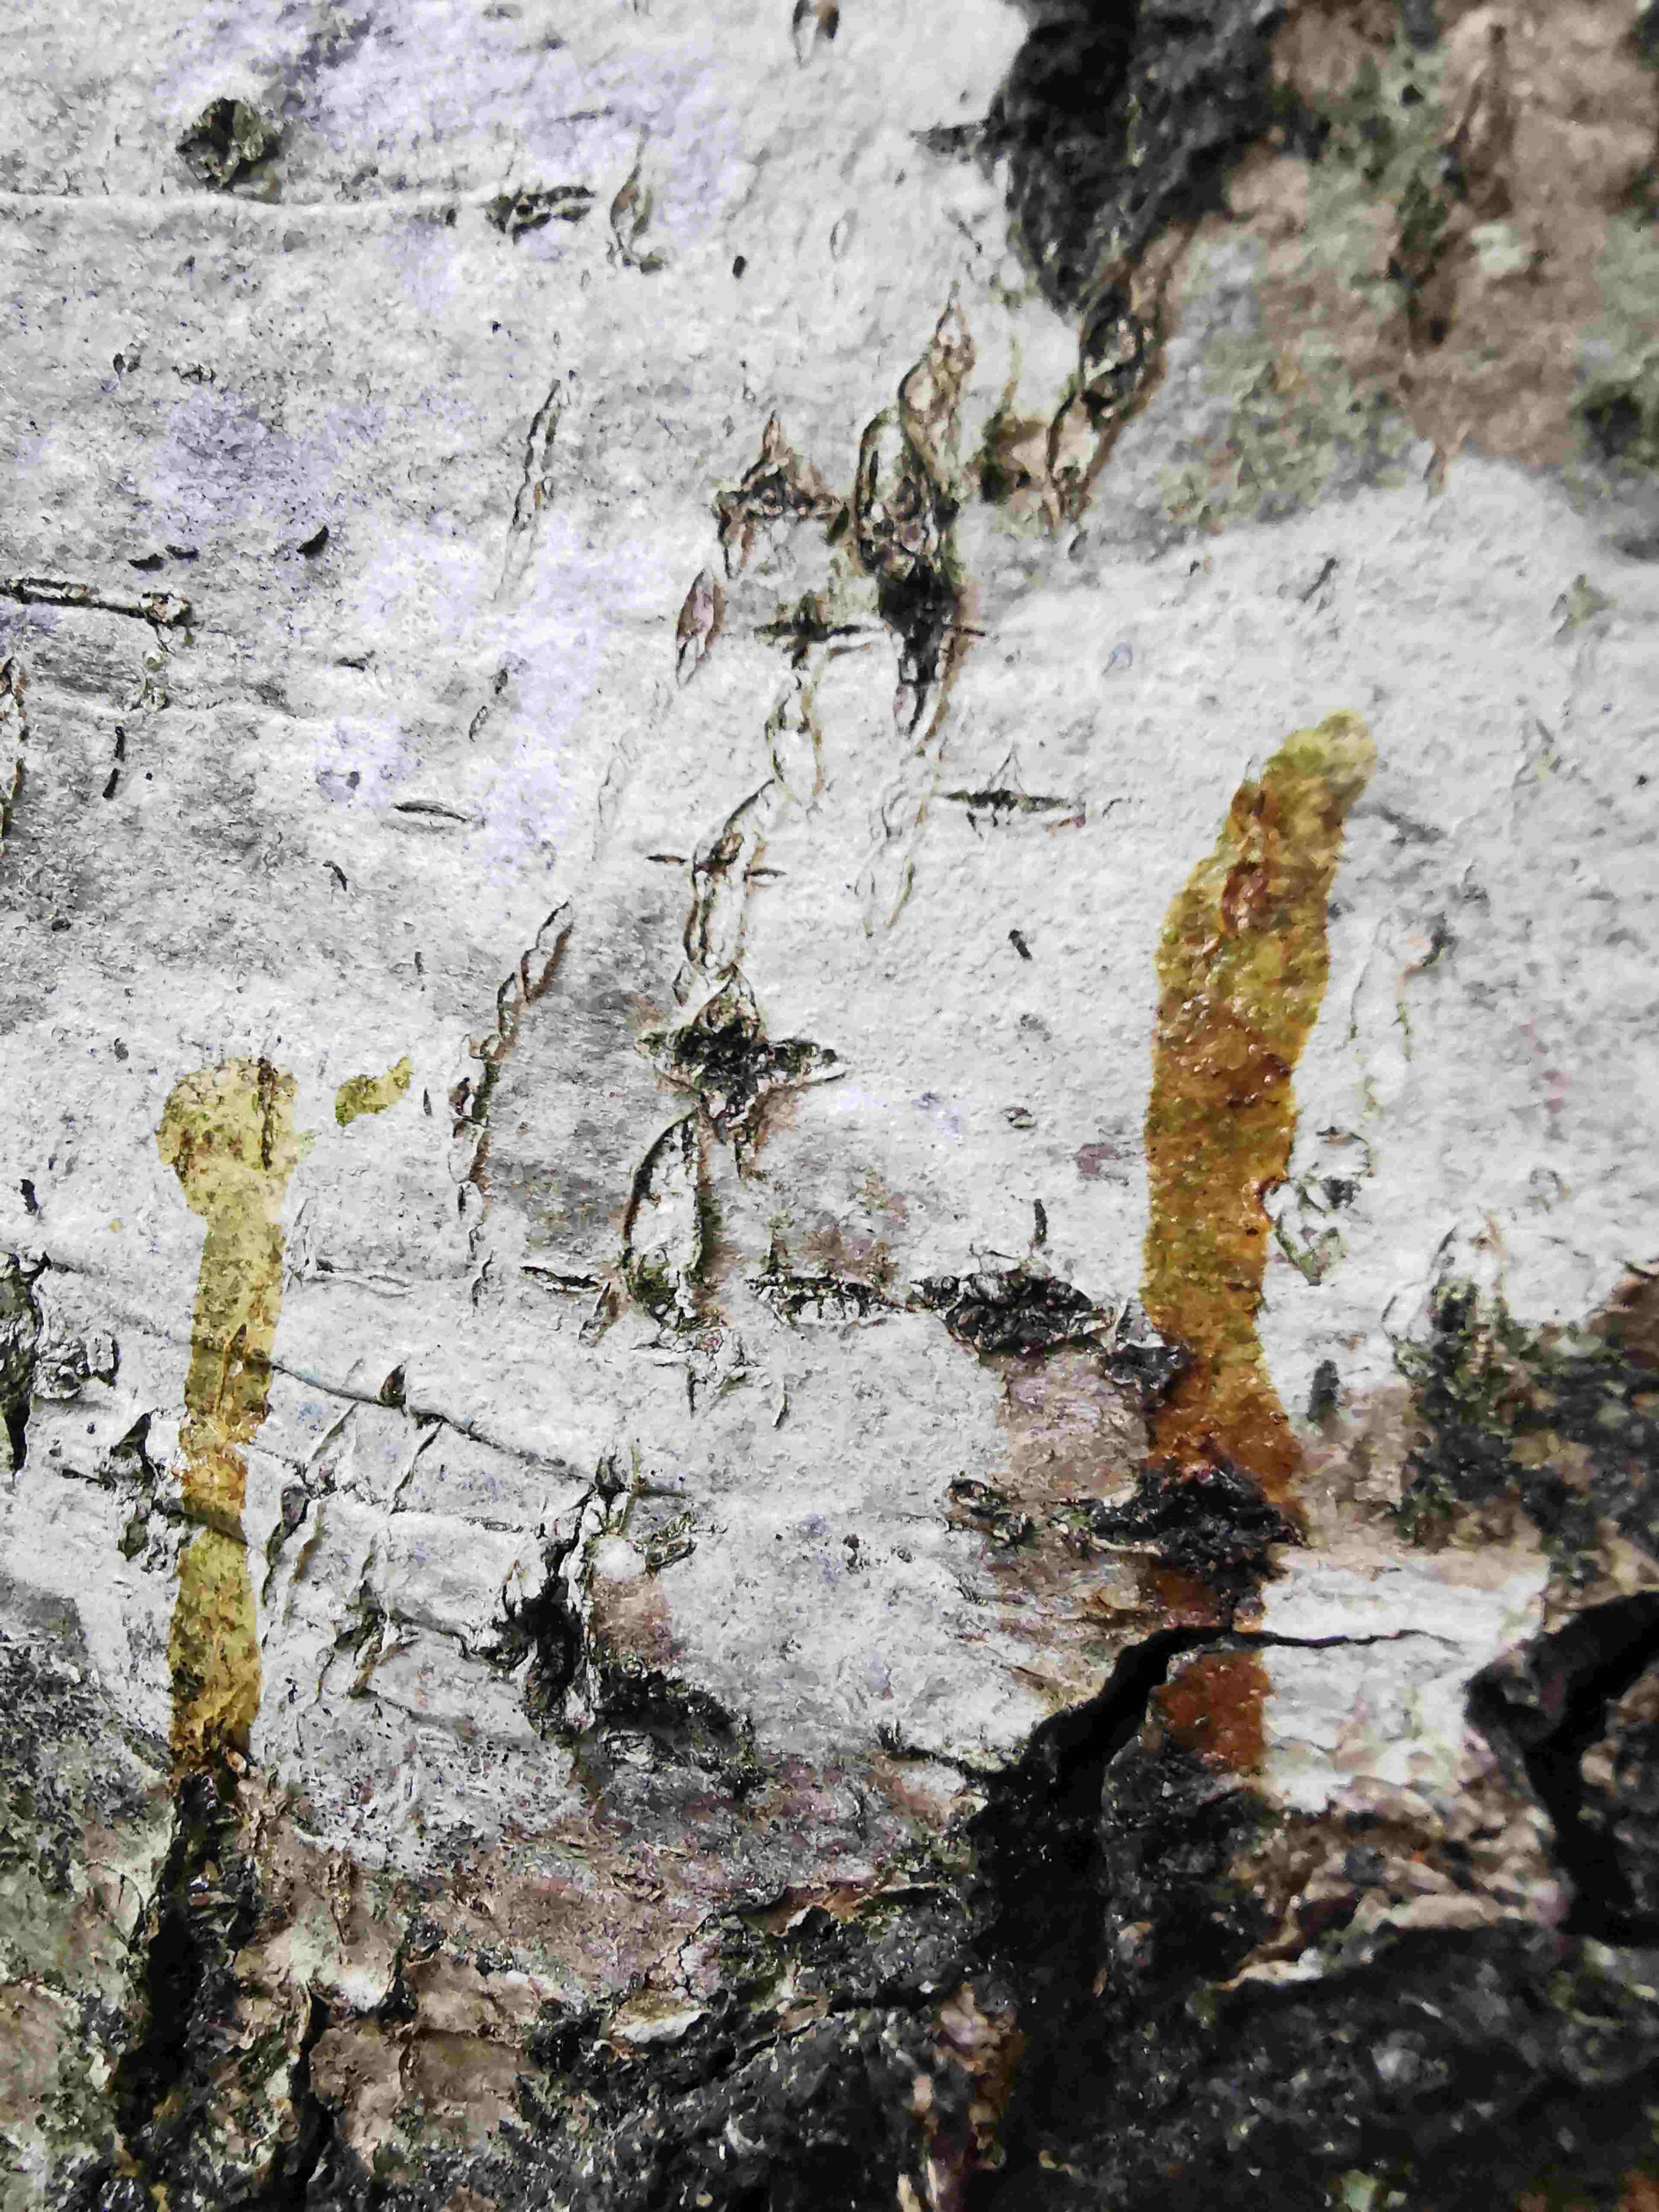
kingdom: Fungi
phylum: Ascomycota
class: Lecanoromycetes
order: Ostropales
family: Phlyctidaceae
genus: Phlyctis
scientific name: Phlyctis argena
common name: almindelig sølvlav
